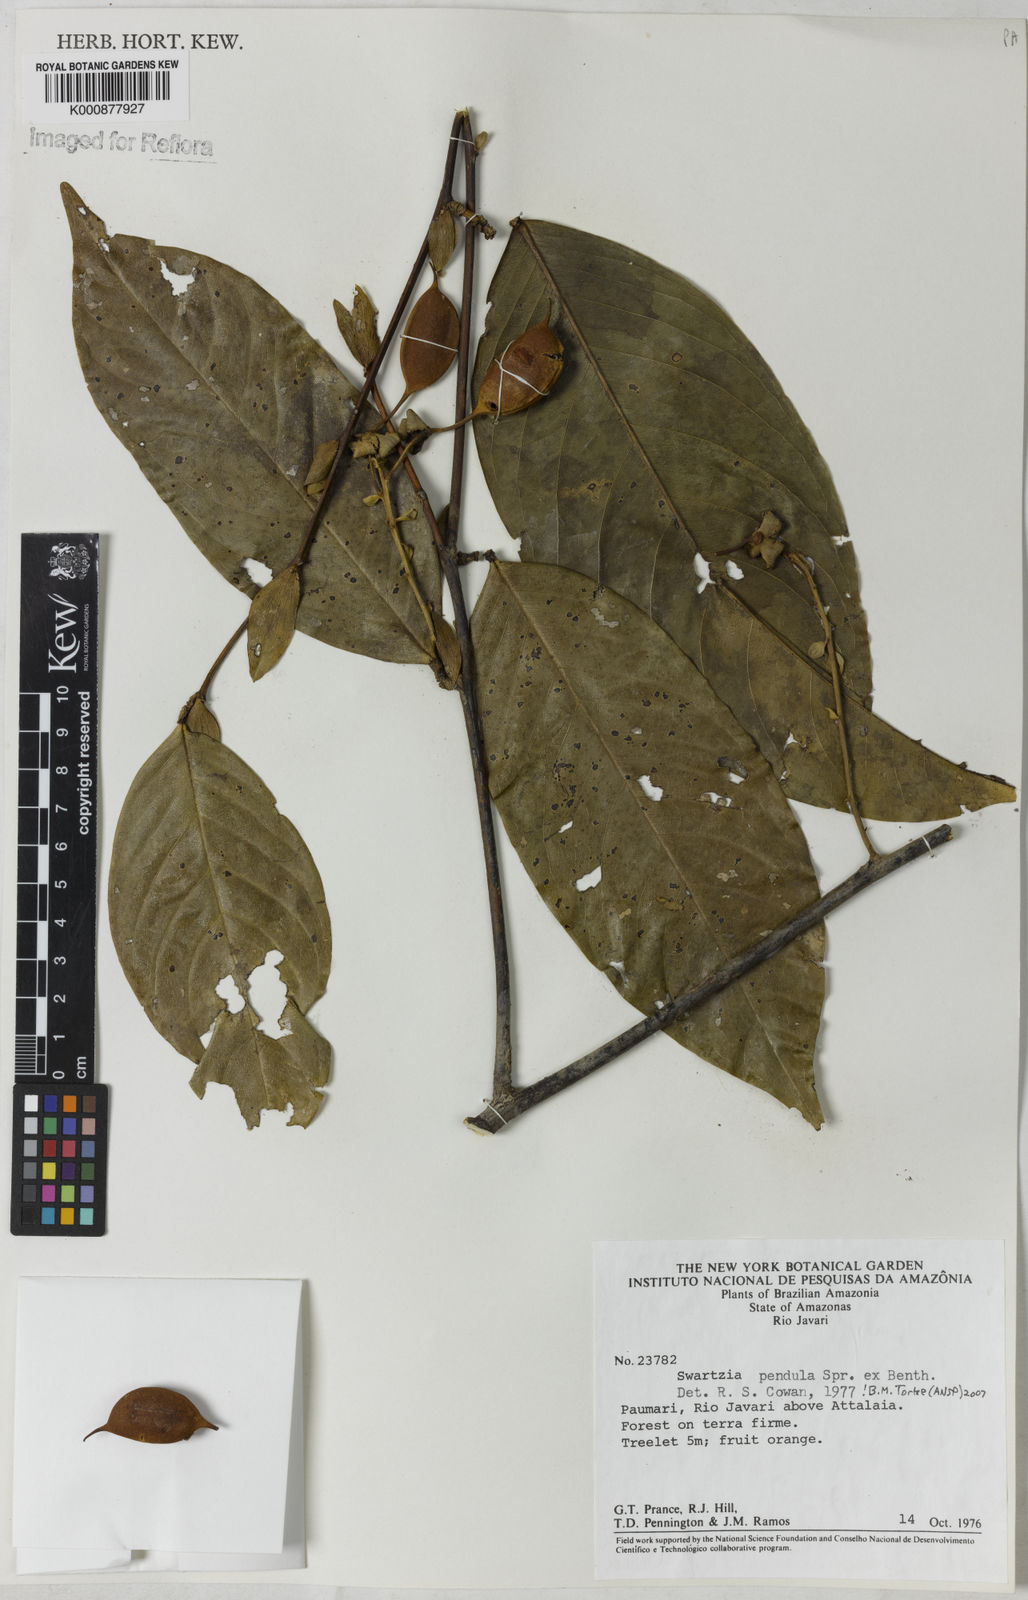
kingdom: Plantae
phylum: Tracheophyta
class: Magnoliopsida
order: Fabales
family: Fabaceae
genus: Swartzia
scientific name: Swartzia pendula
